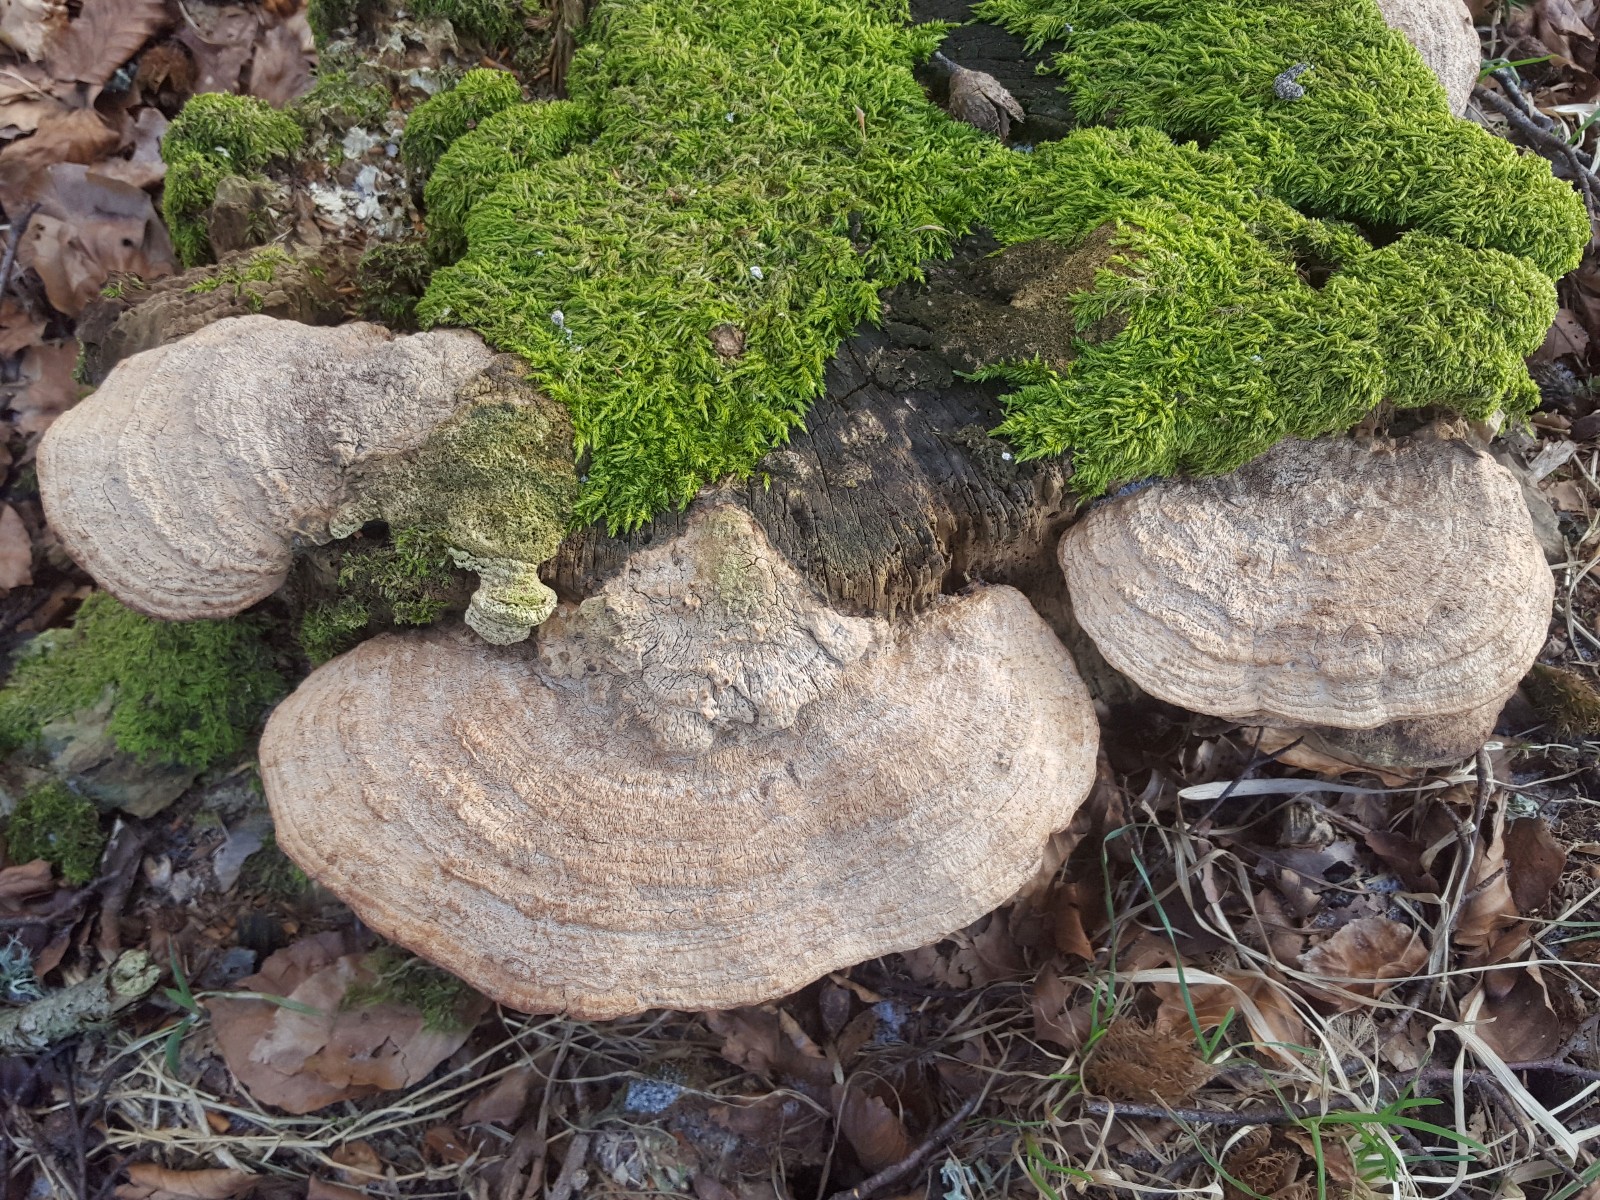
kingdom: Fungi
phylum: Basidiomycota
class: Agaricomycetes
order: Polyporales
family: Fomitopsidaceae
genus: Daedalea
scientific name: Daedalea quercina
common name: ege-labyrintsvamp
